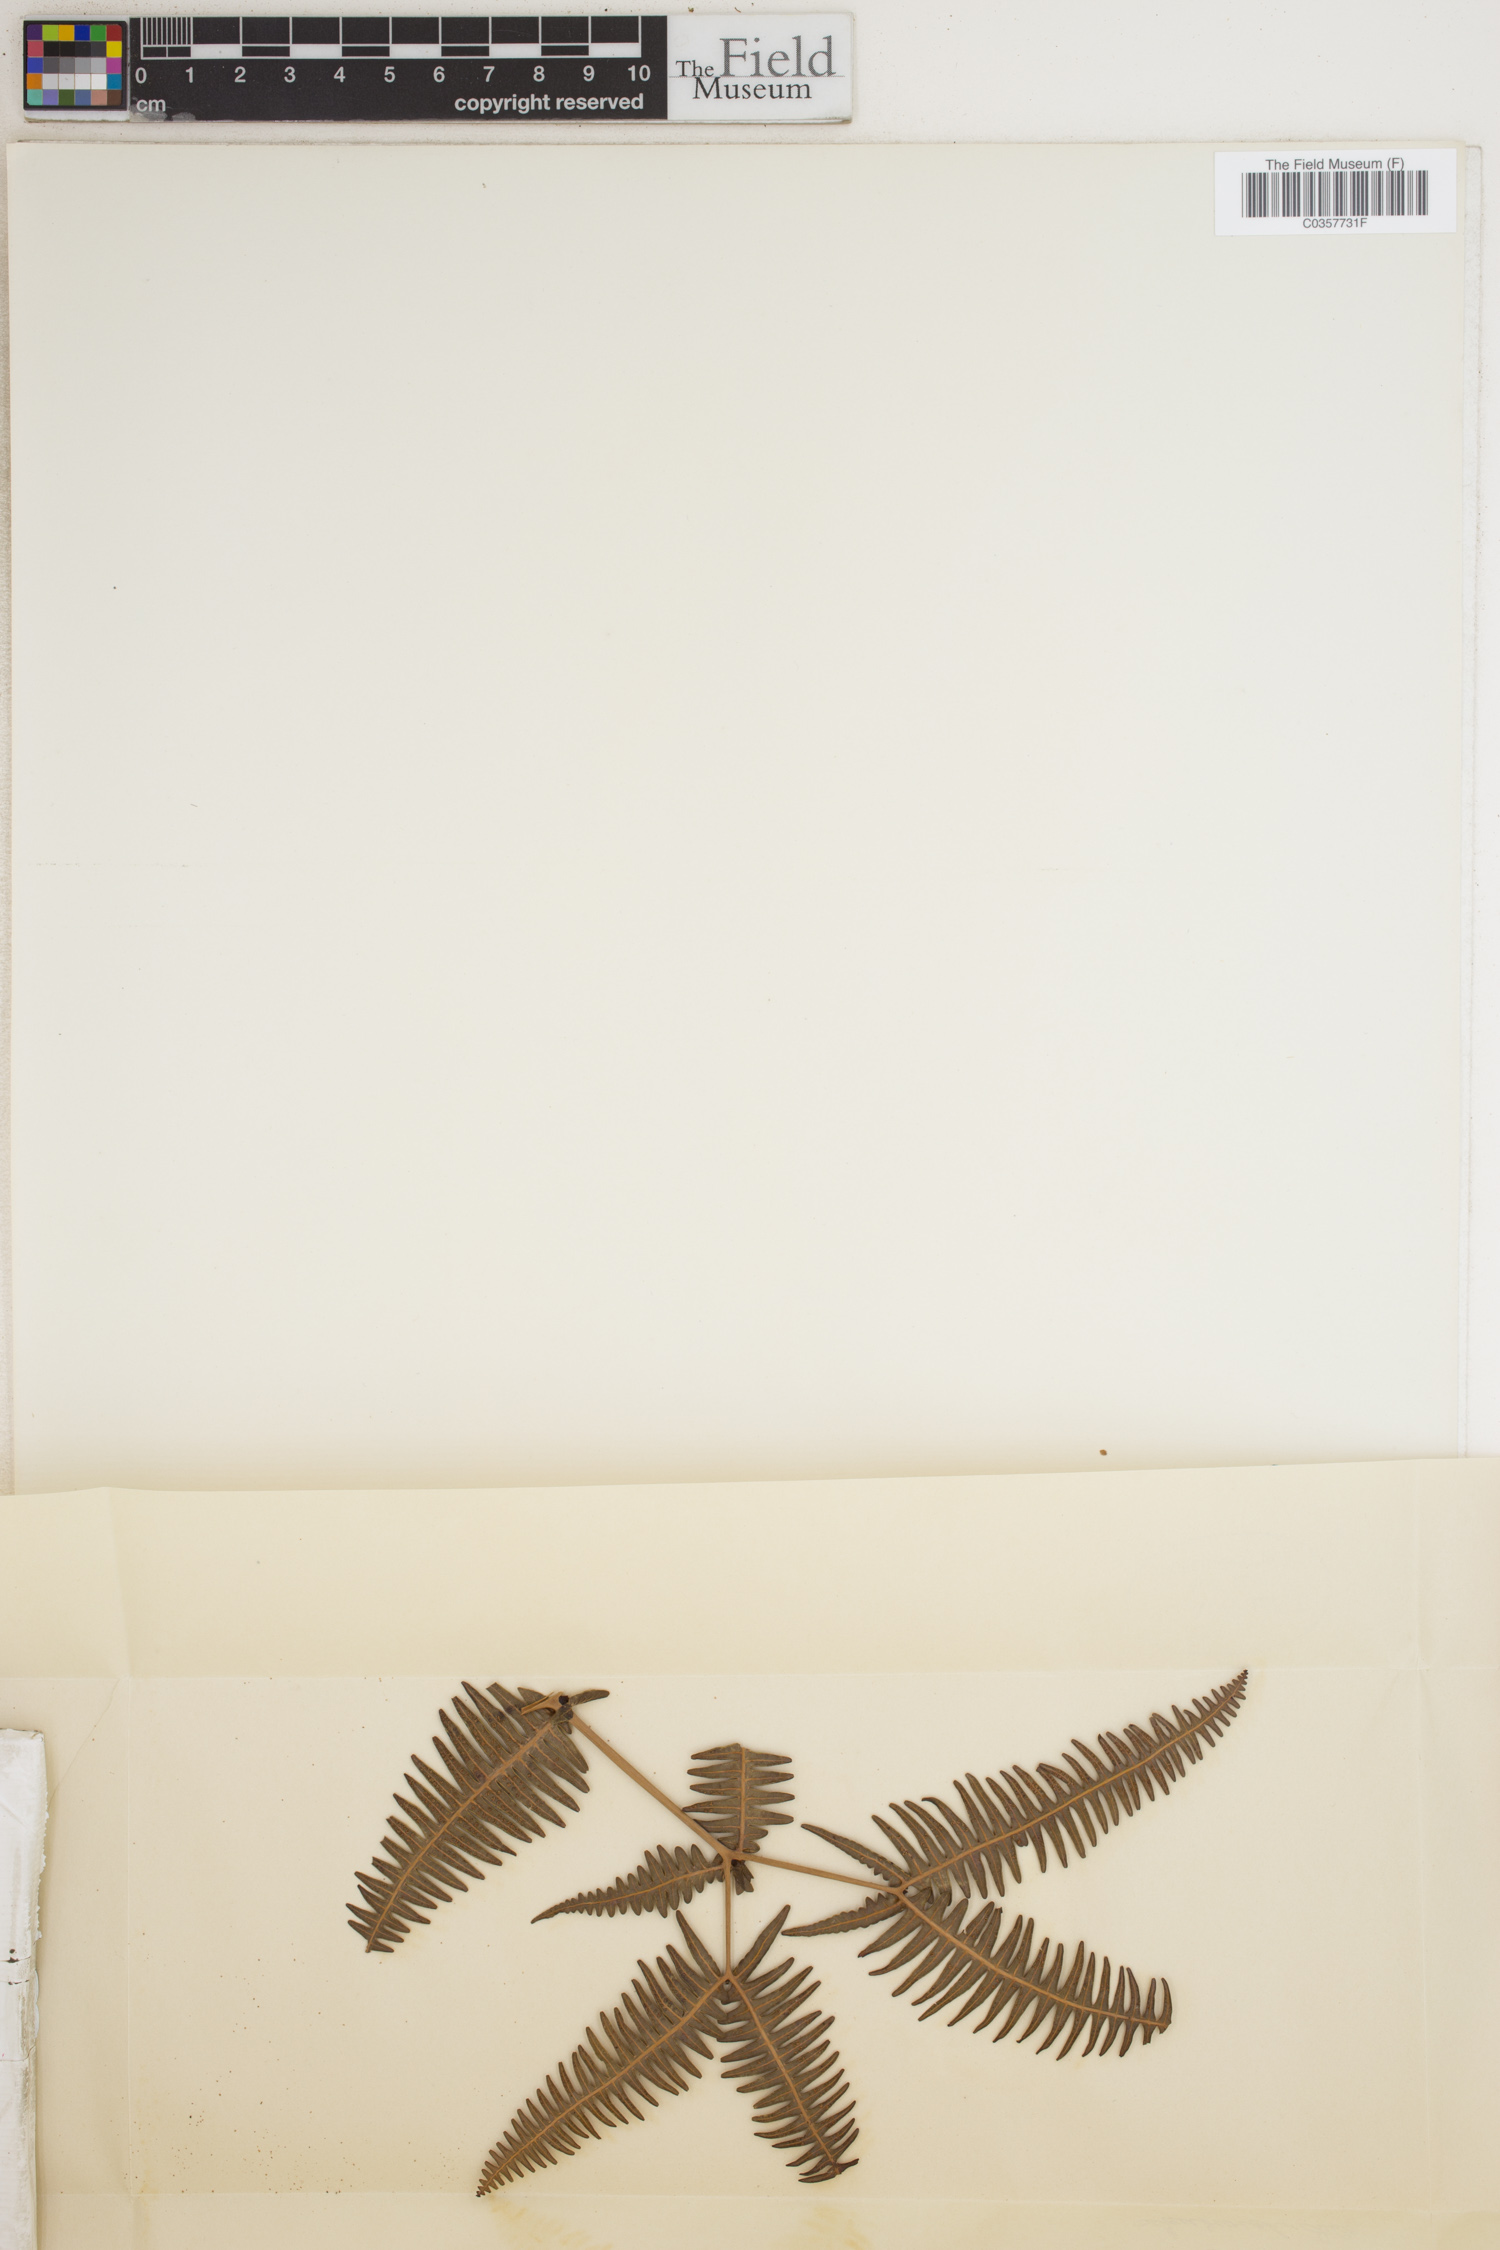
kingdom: Plantae
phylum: Tracheophyta
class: Polypodiopsida
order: Gleicheniales
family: Gleicheniaceae
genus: Dicranopteris
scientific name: Dicranopteris linearis
